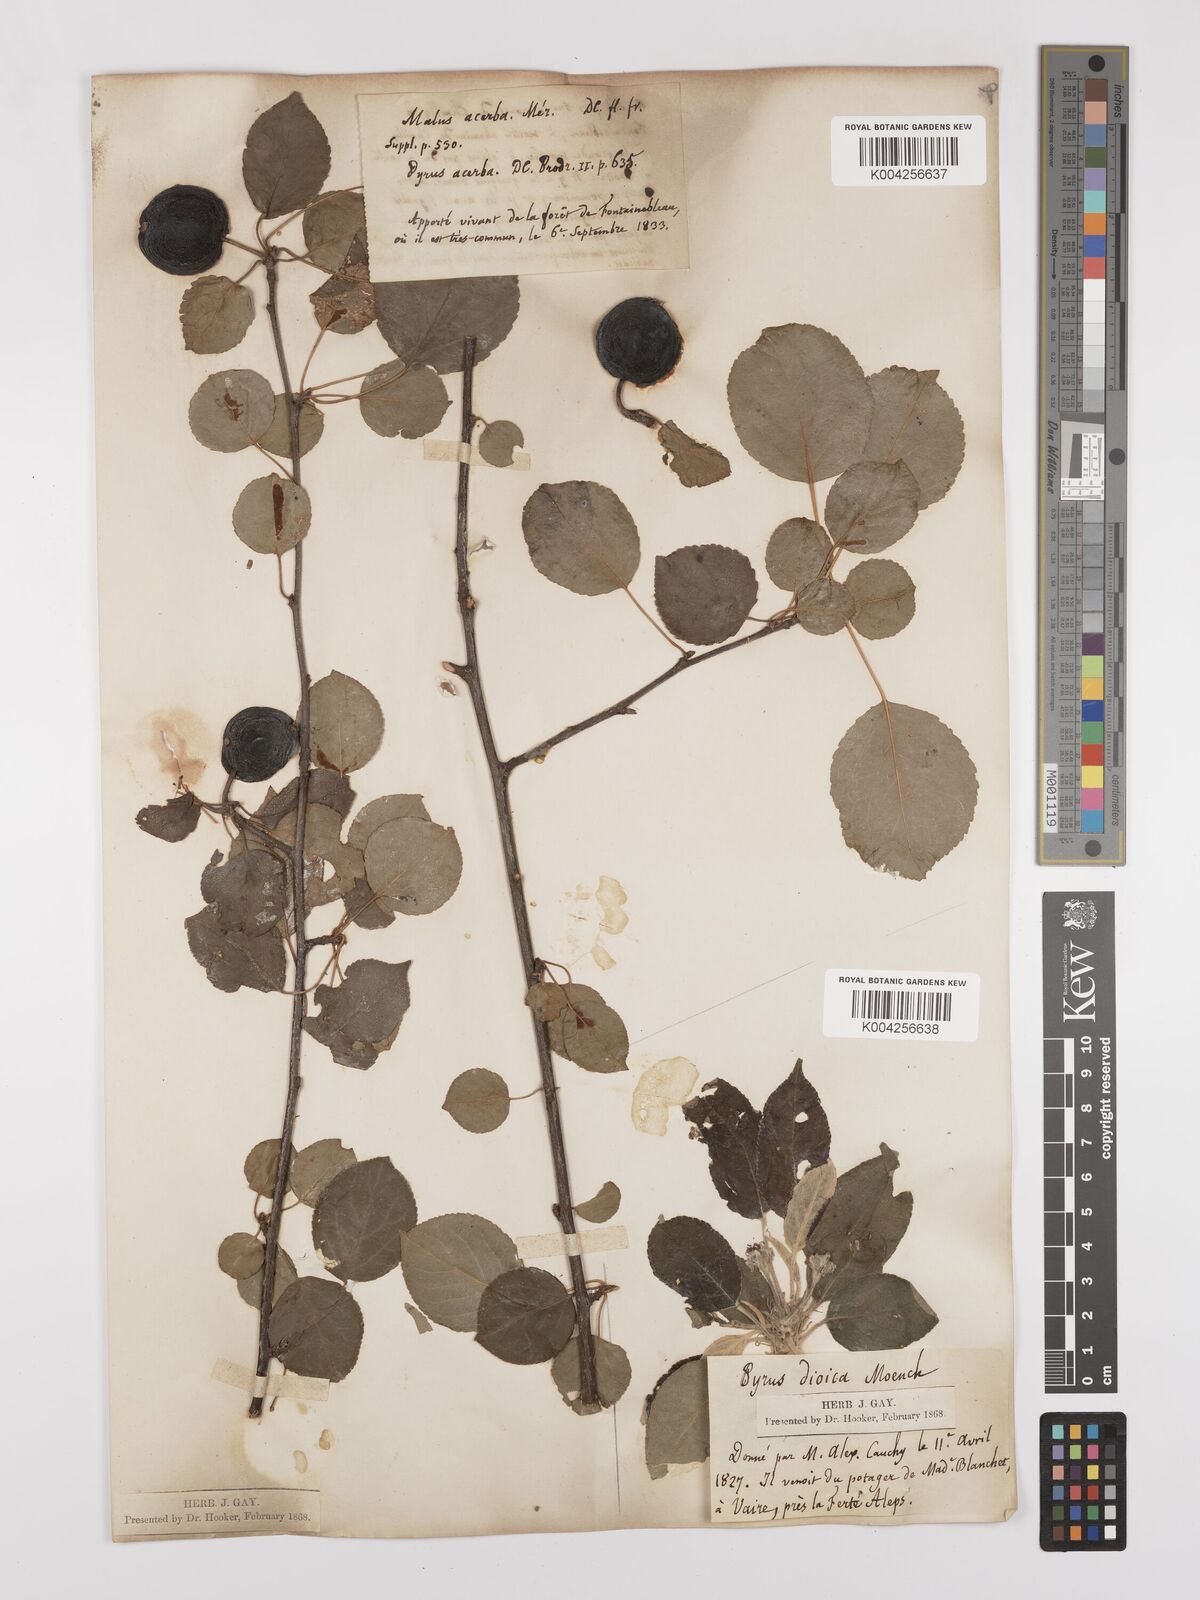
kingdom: Plantae
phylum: Tracheophyta
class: Magnoliopsida
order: Rosales
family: Rosaceae
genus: Malus
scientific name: Malus domestica
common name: Apple
